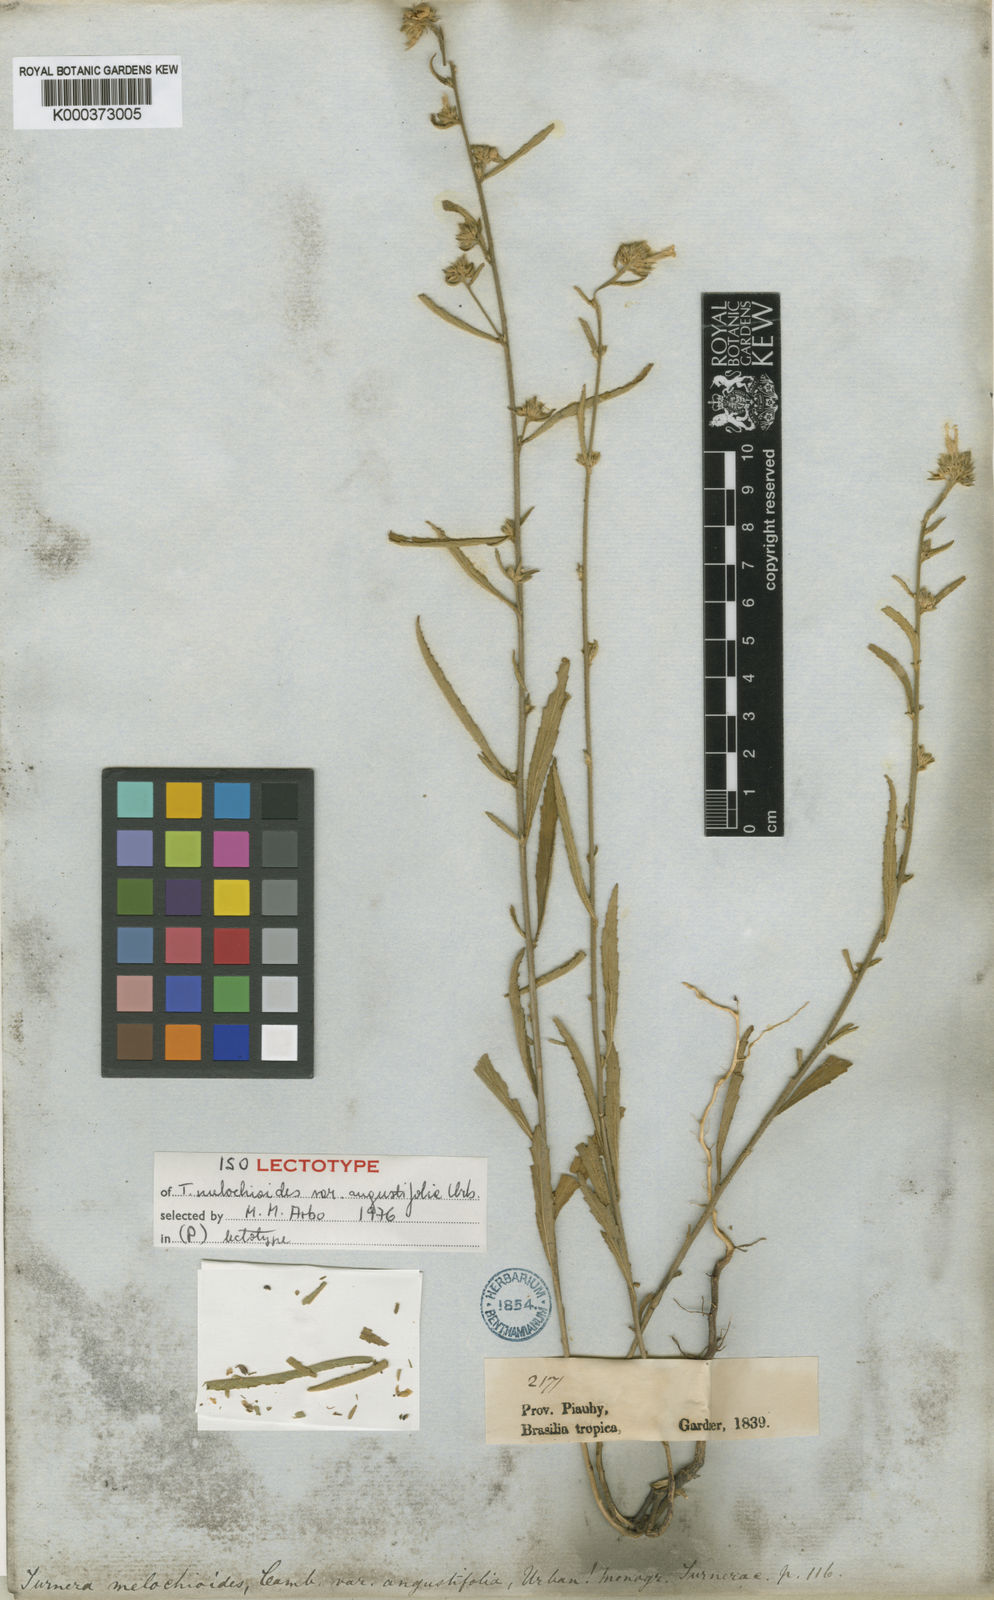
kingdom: Plantae
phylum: Tracheophyta
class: Magnoliopsida
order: Malpighiales
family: Turneraceae
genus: Turnera
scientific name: Turnera arenaria
